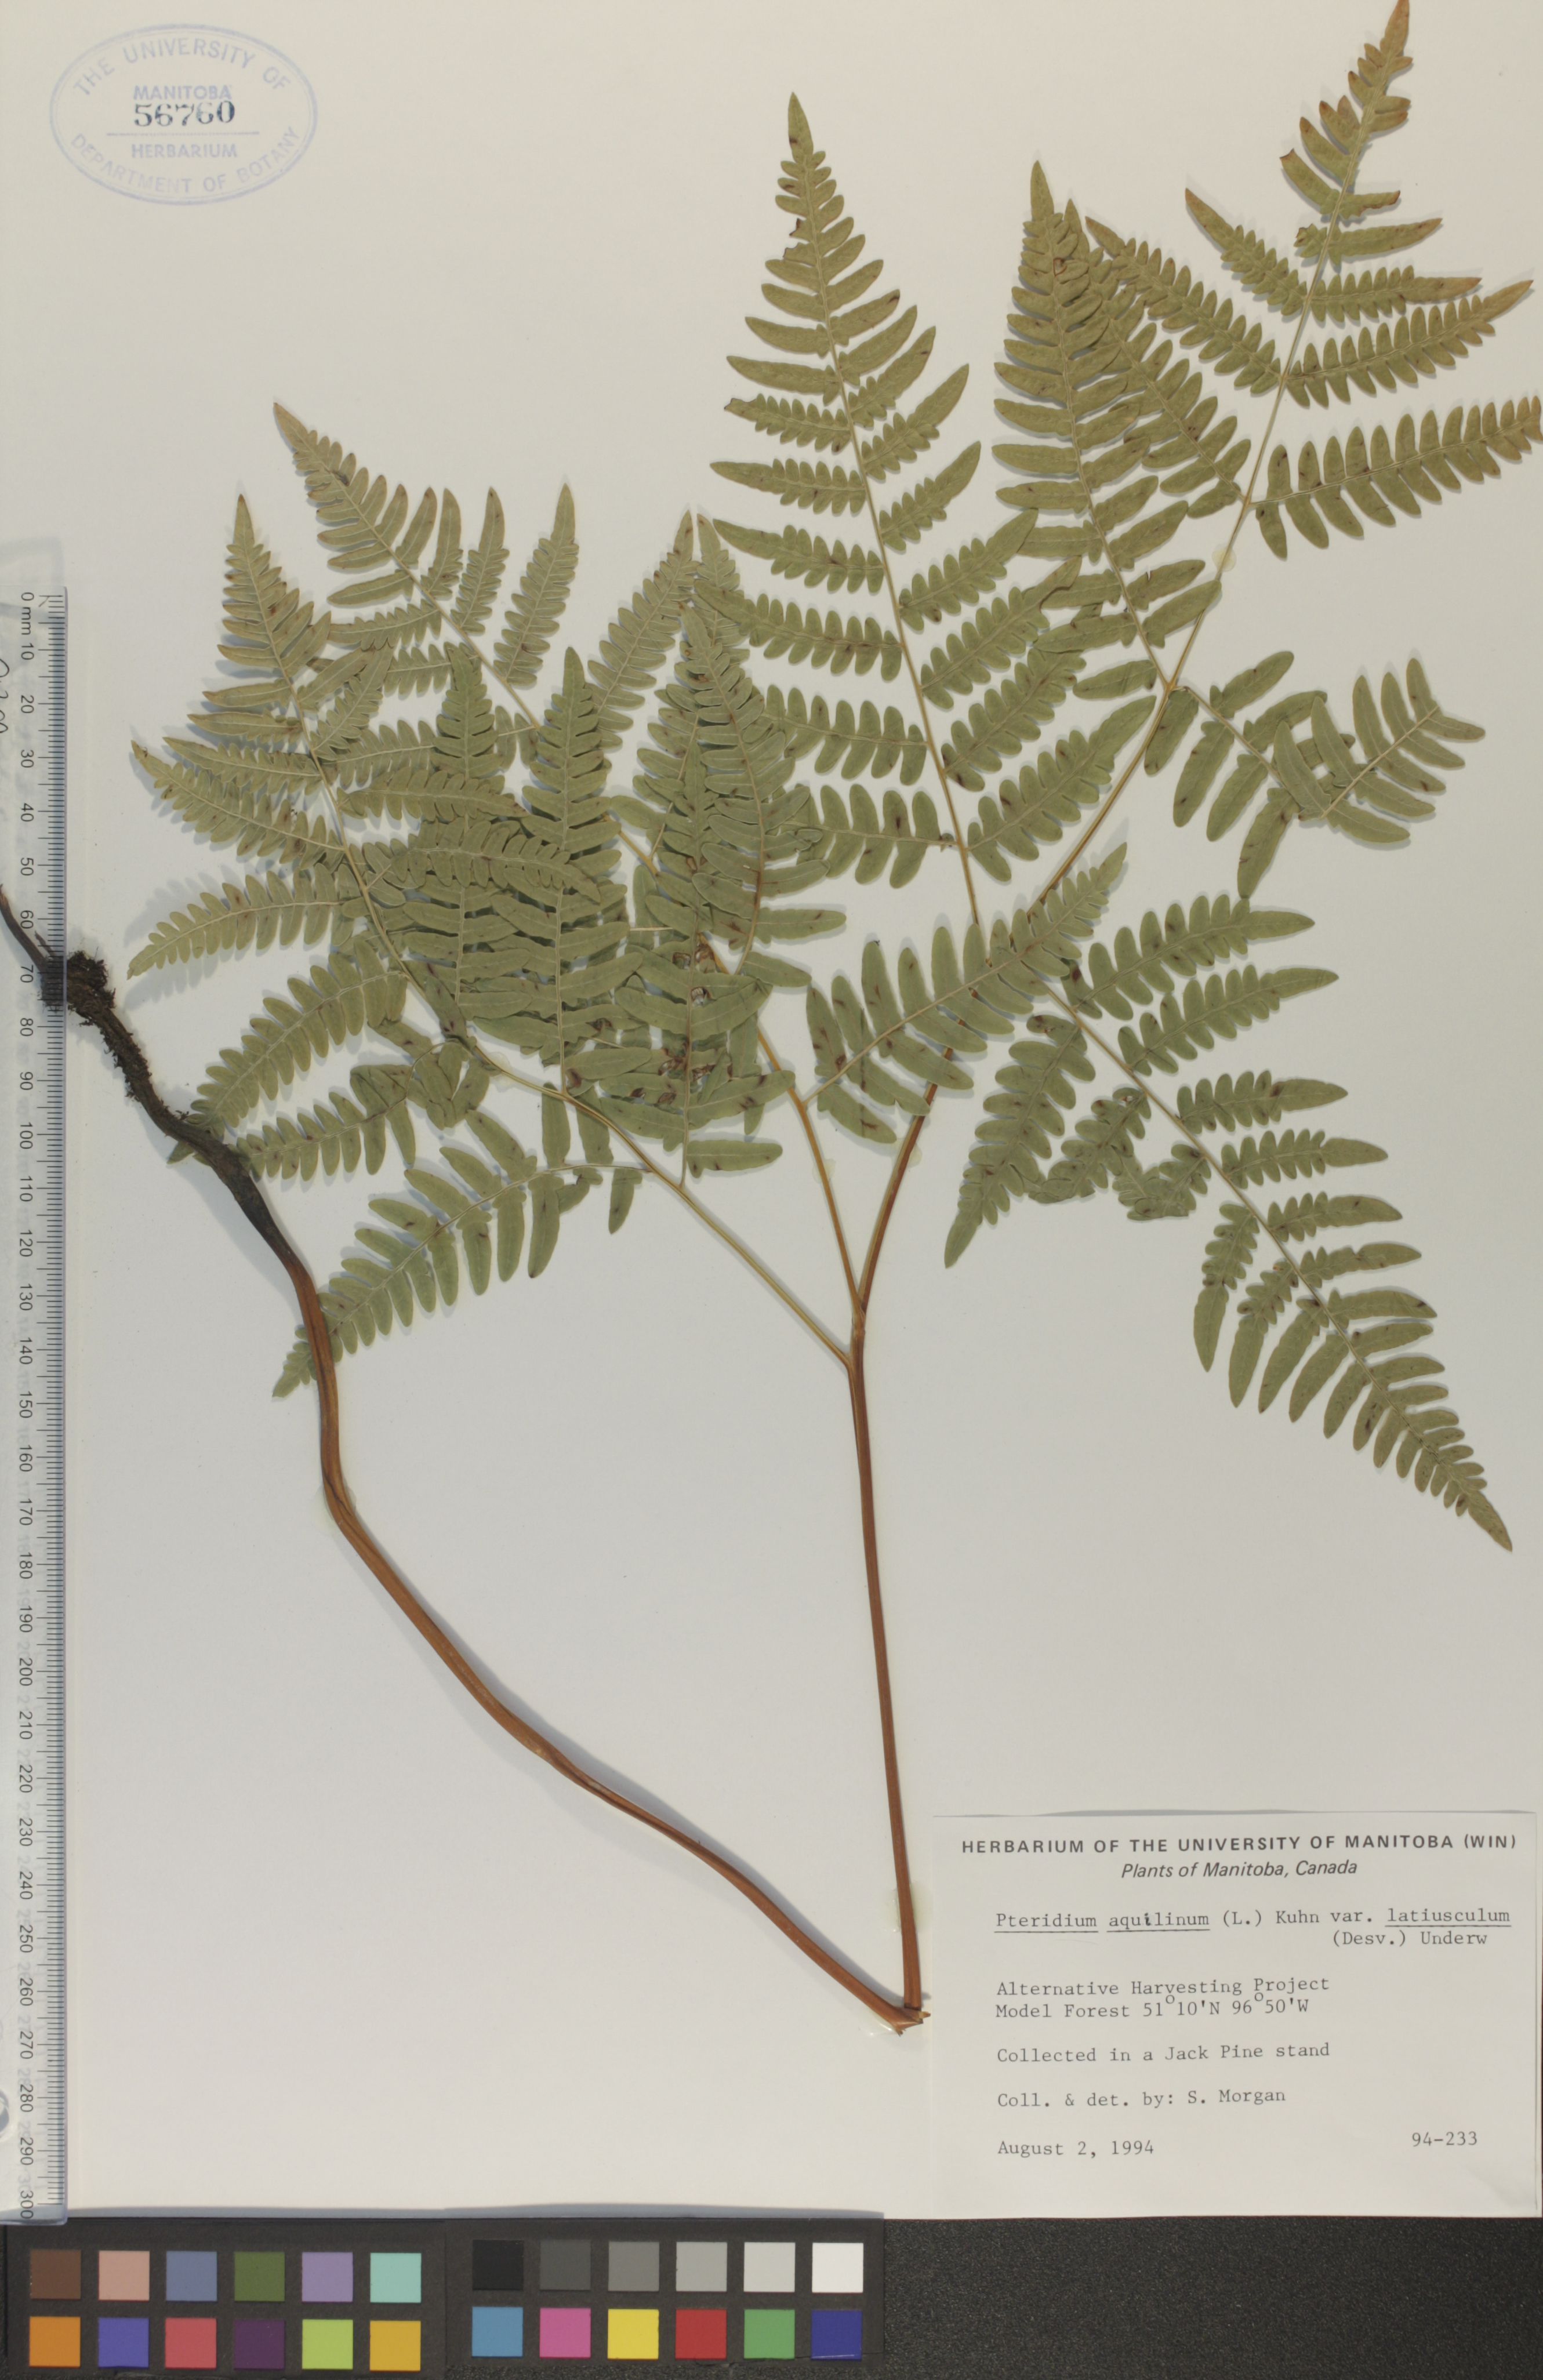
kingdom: Plantae
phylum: Tracheophyta
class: Polypodiopsida
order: Polypodiales
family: Dennstaedtiaceae
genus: Pteridium
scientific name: Pteridium aquilinum
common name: Bracken
